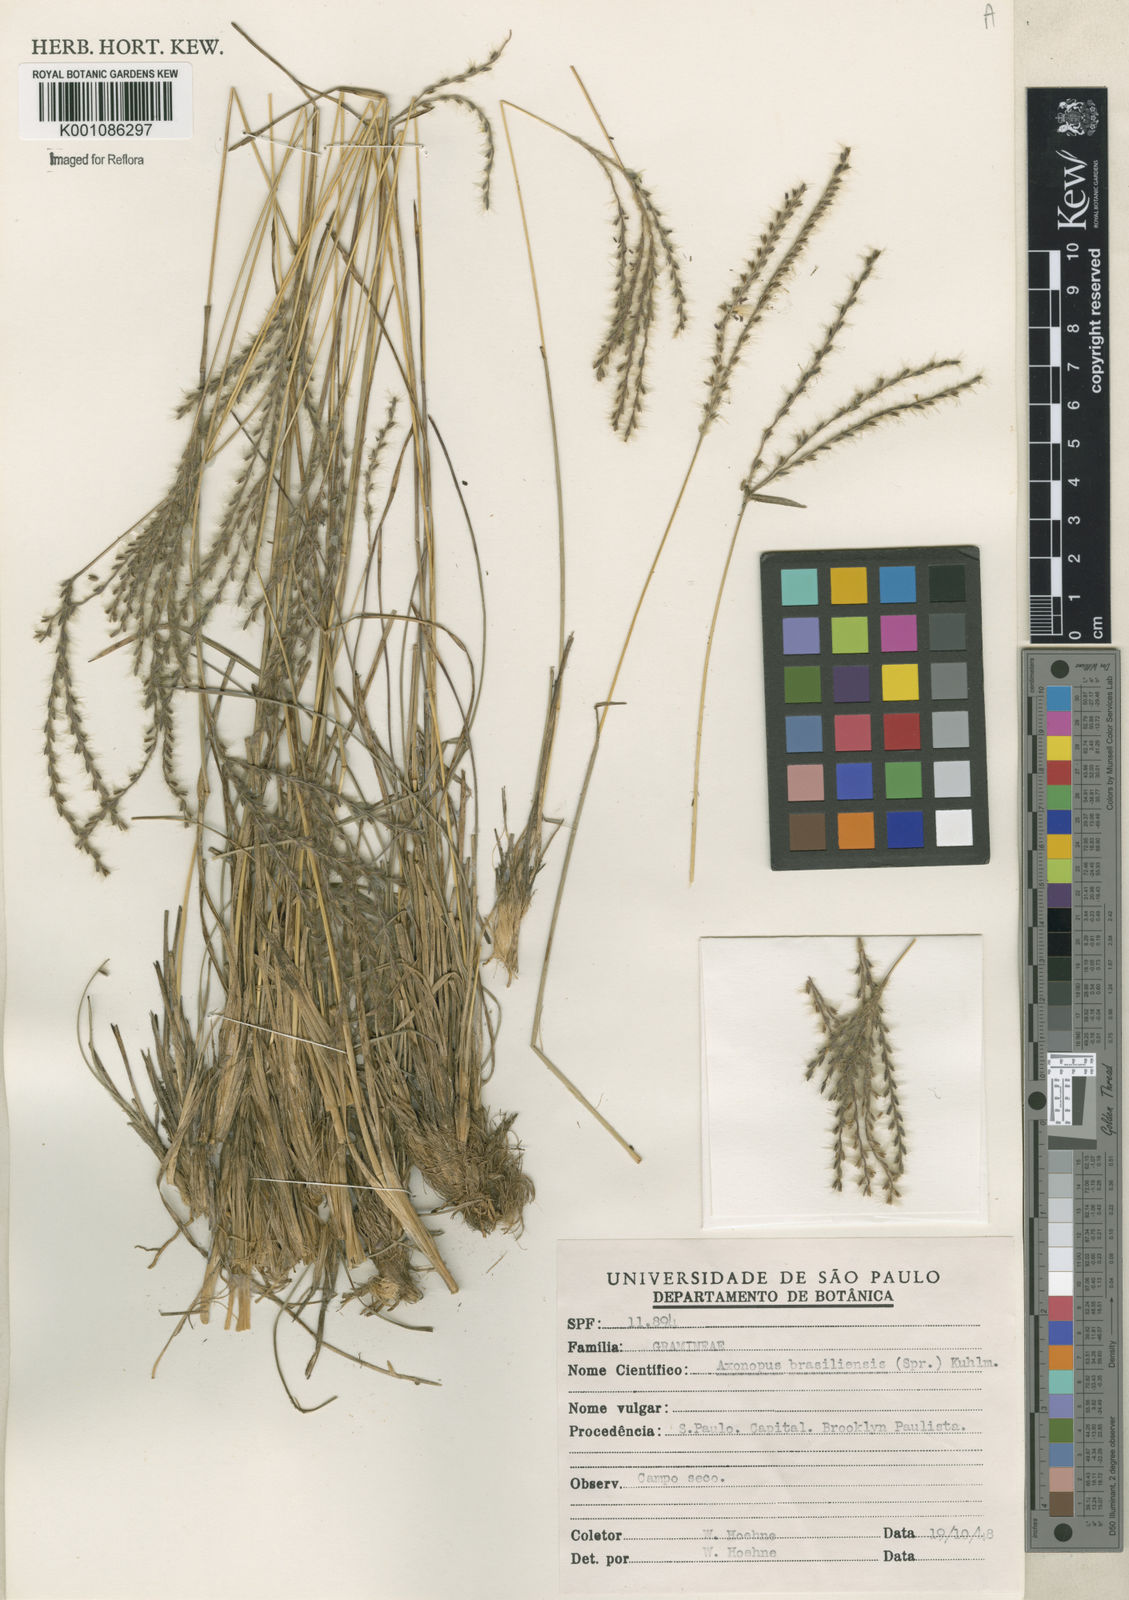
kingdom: Plantae
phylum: Tracheophyta
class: Liliopsida
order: Poales
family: Poaceae
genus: Axonopus
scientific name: Axonopus brasiliensis
